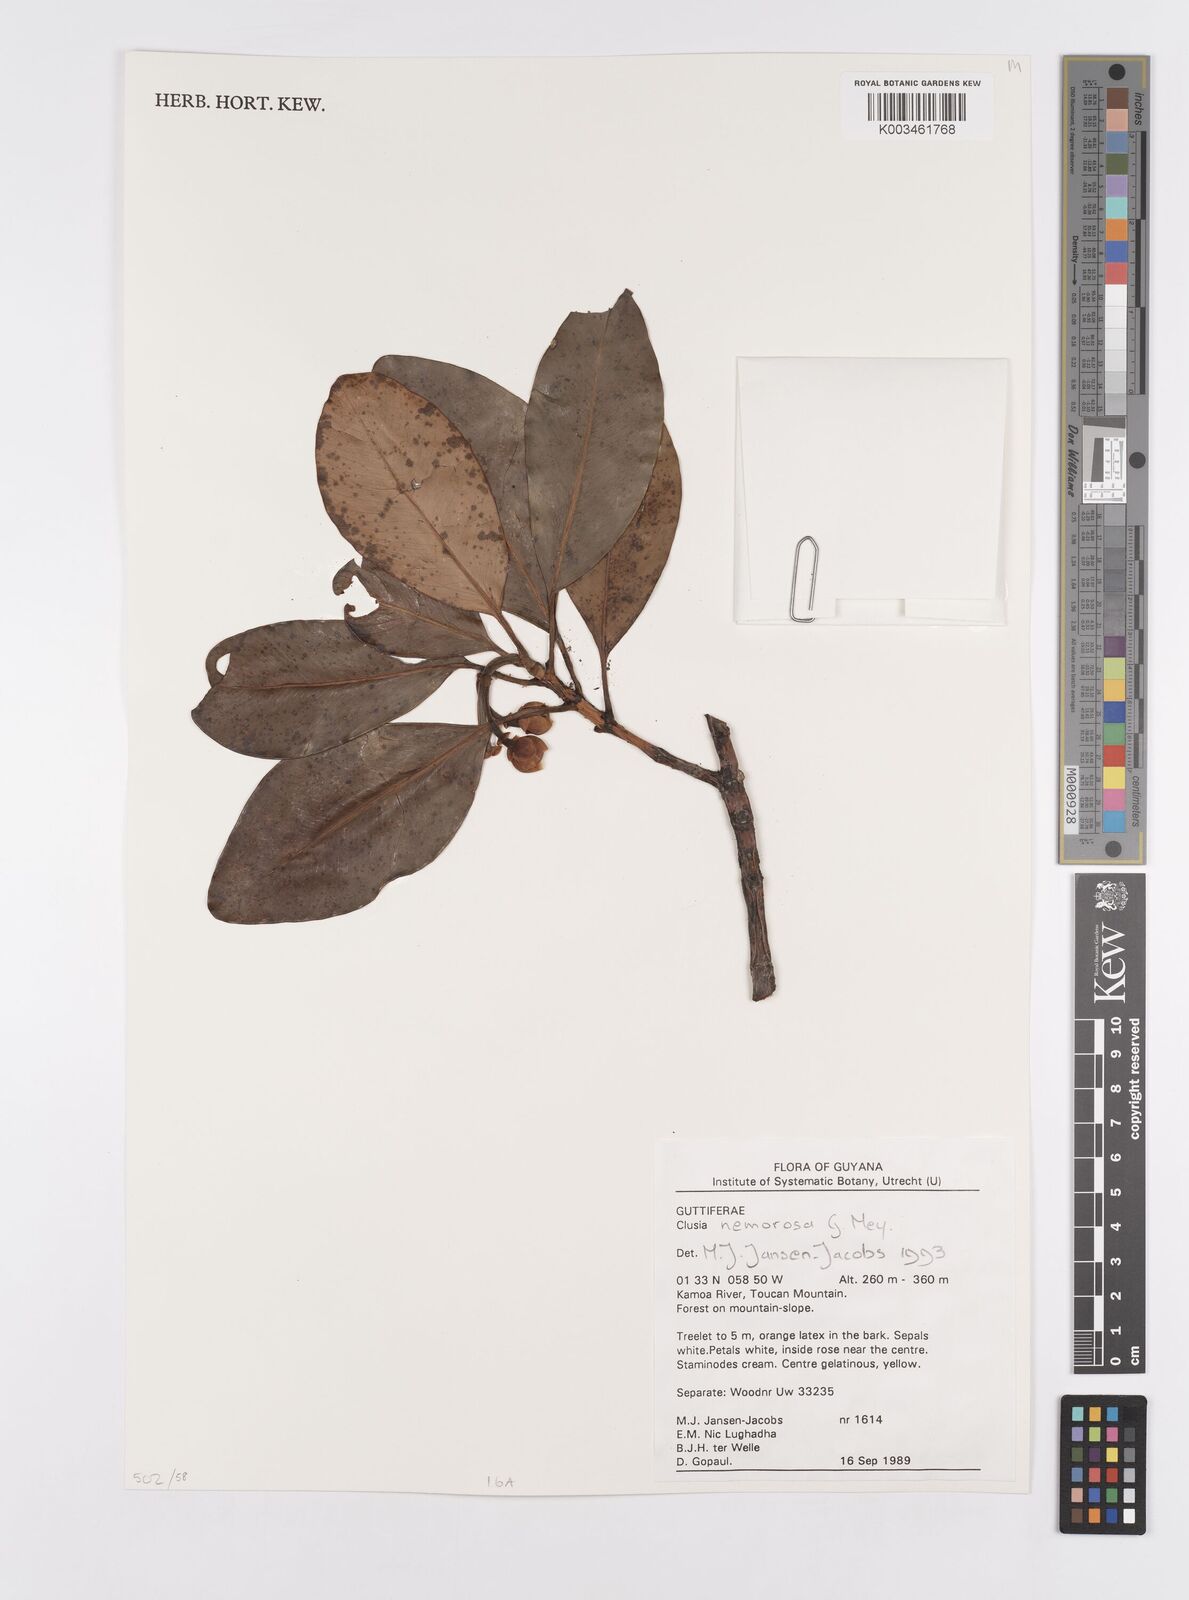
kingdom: Plantae
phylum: Tracheophyta
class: Magnoliopsida
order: Malpighiales
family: Clusiaceae
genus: Clusia
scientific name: Clusia nemorosa
